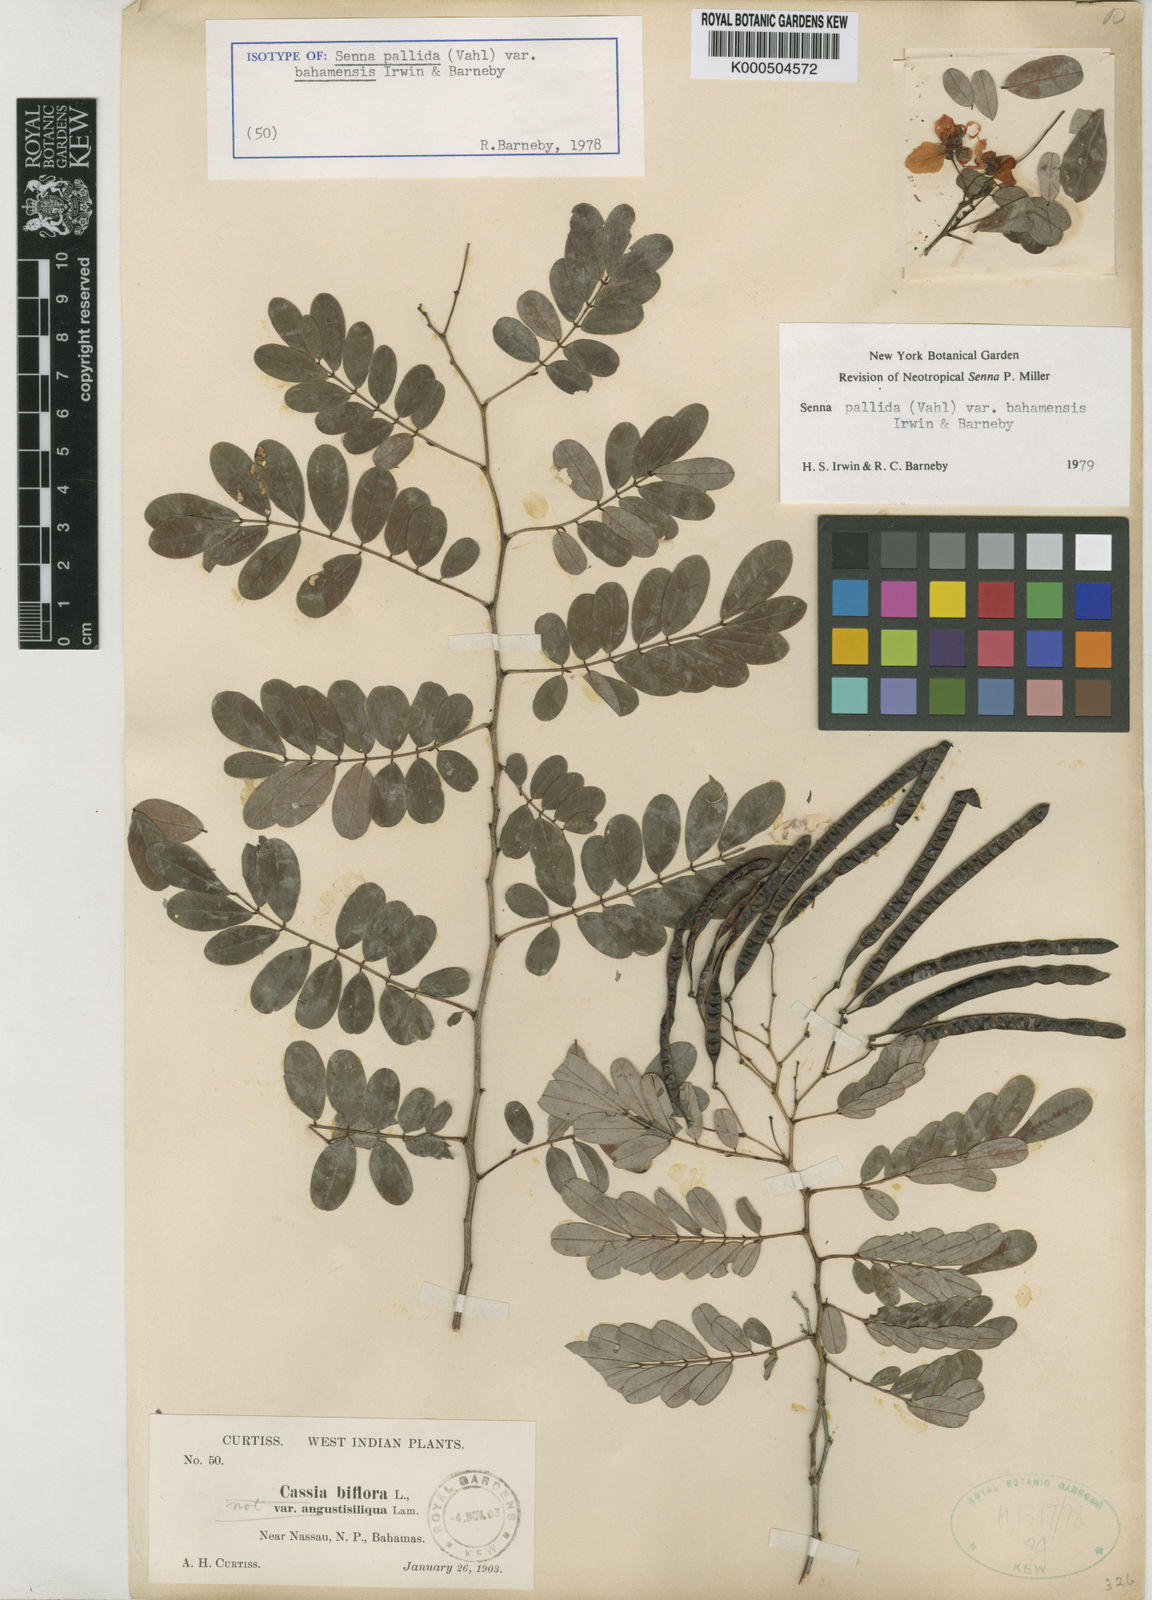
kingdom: Plantae
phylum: Tracheophyta
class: Magnoliopsida
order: Fabales
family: Fabaceae
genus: Senna
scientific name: Senna pallida
